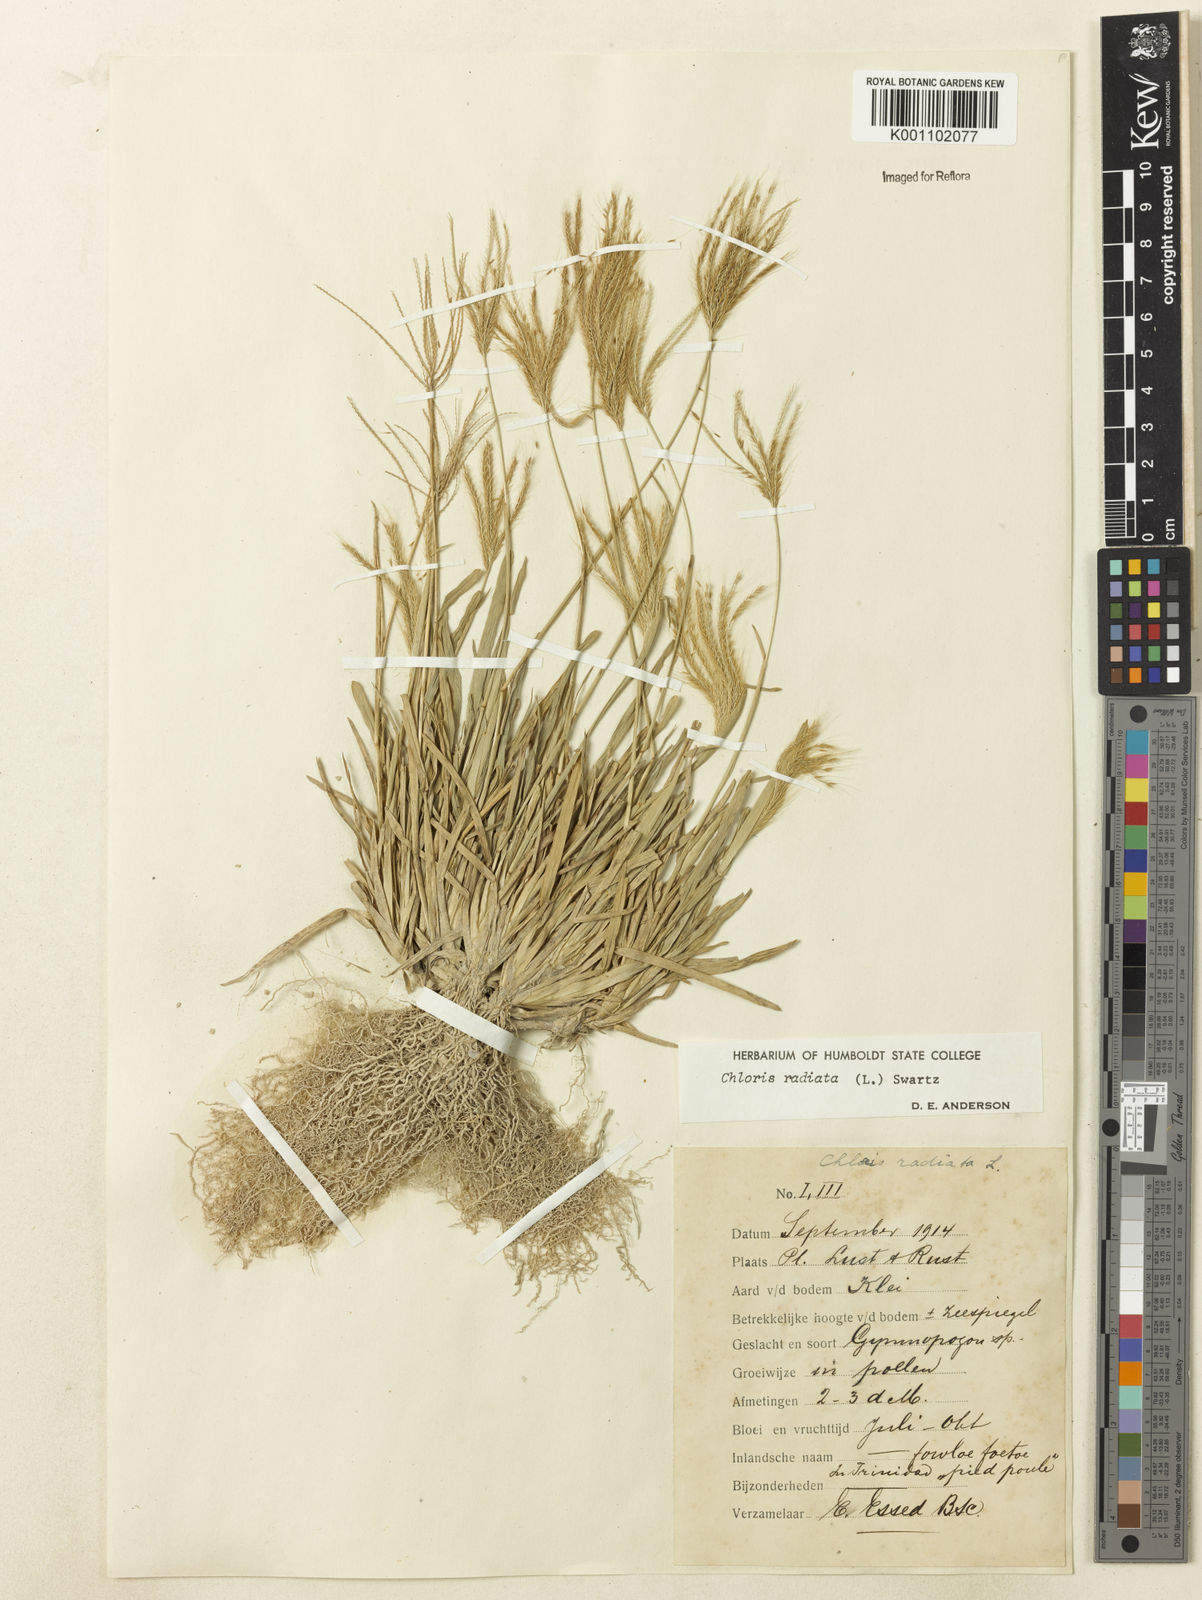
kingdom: Plantae
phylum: Tracheophyta
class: Liliopsida
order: Poales
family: Poaceae
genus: Chloris
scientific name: Chloris radiata
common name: Radiate fingergrass
